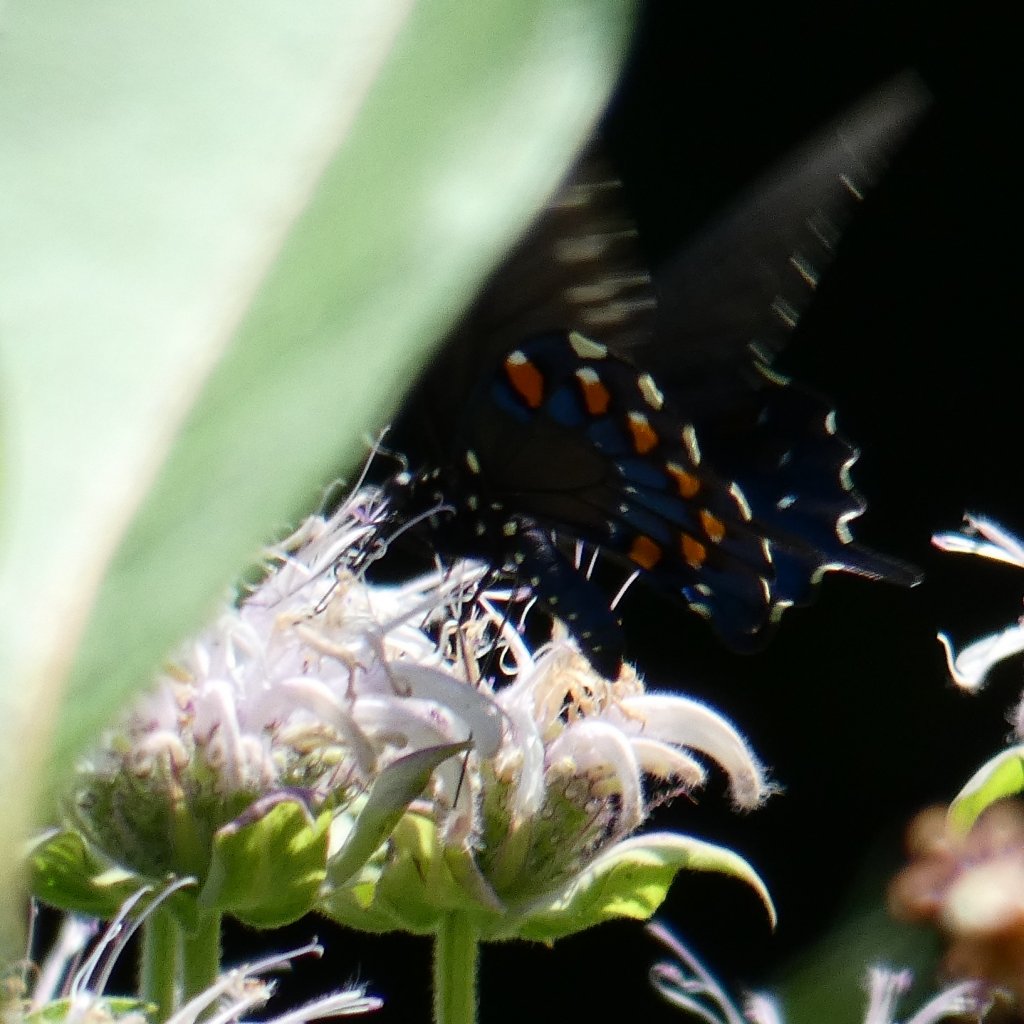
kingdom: Animalia
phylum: Arthropoda
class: Insecta
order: Lepidoptera
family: Papilionidae
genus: Battus
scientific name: Battus philenor
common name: Pipevine Swallowtail
